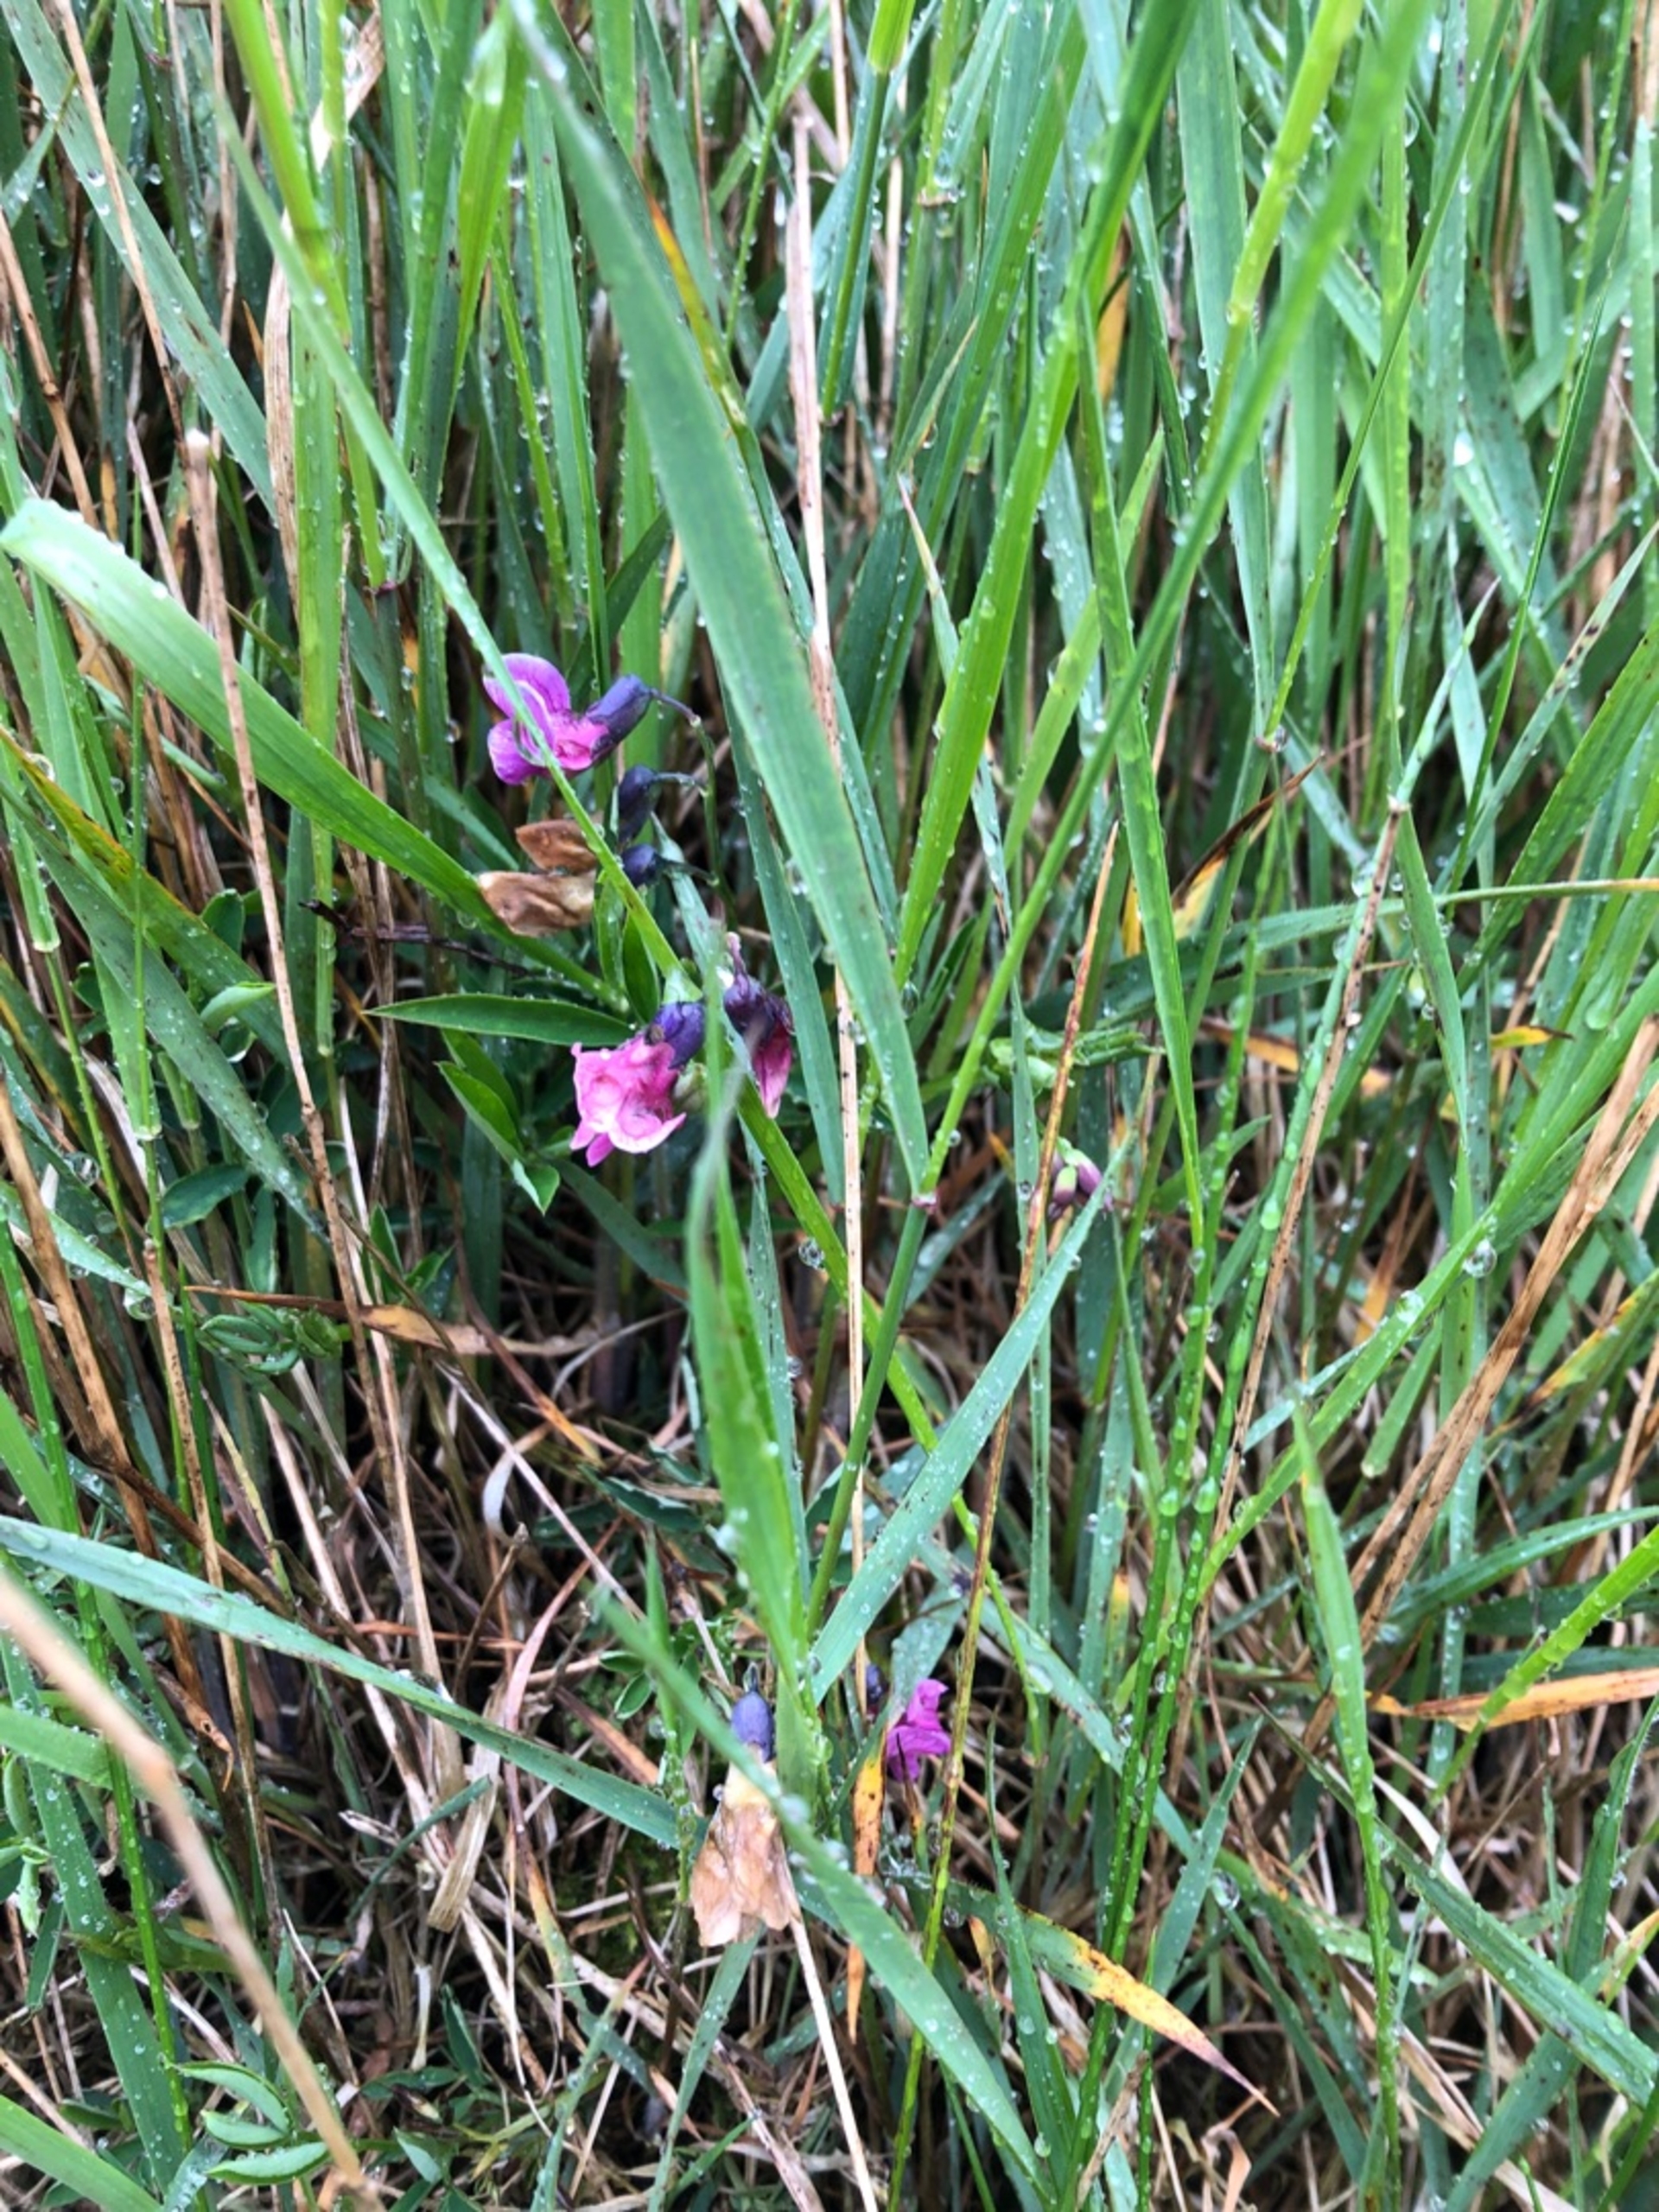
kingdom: Plantae
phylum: Tracheophyta
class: Magnoliopsida
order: Fabales
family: Fabaceae
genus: Lathyrus
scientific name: Lathyrus linifolius
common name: Krat-fladbælg
